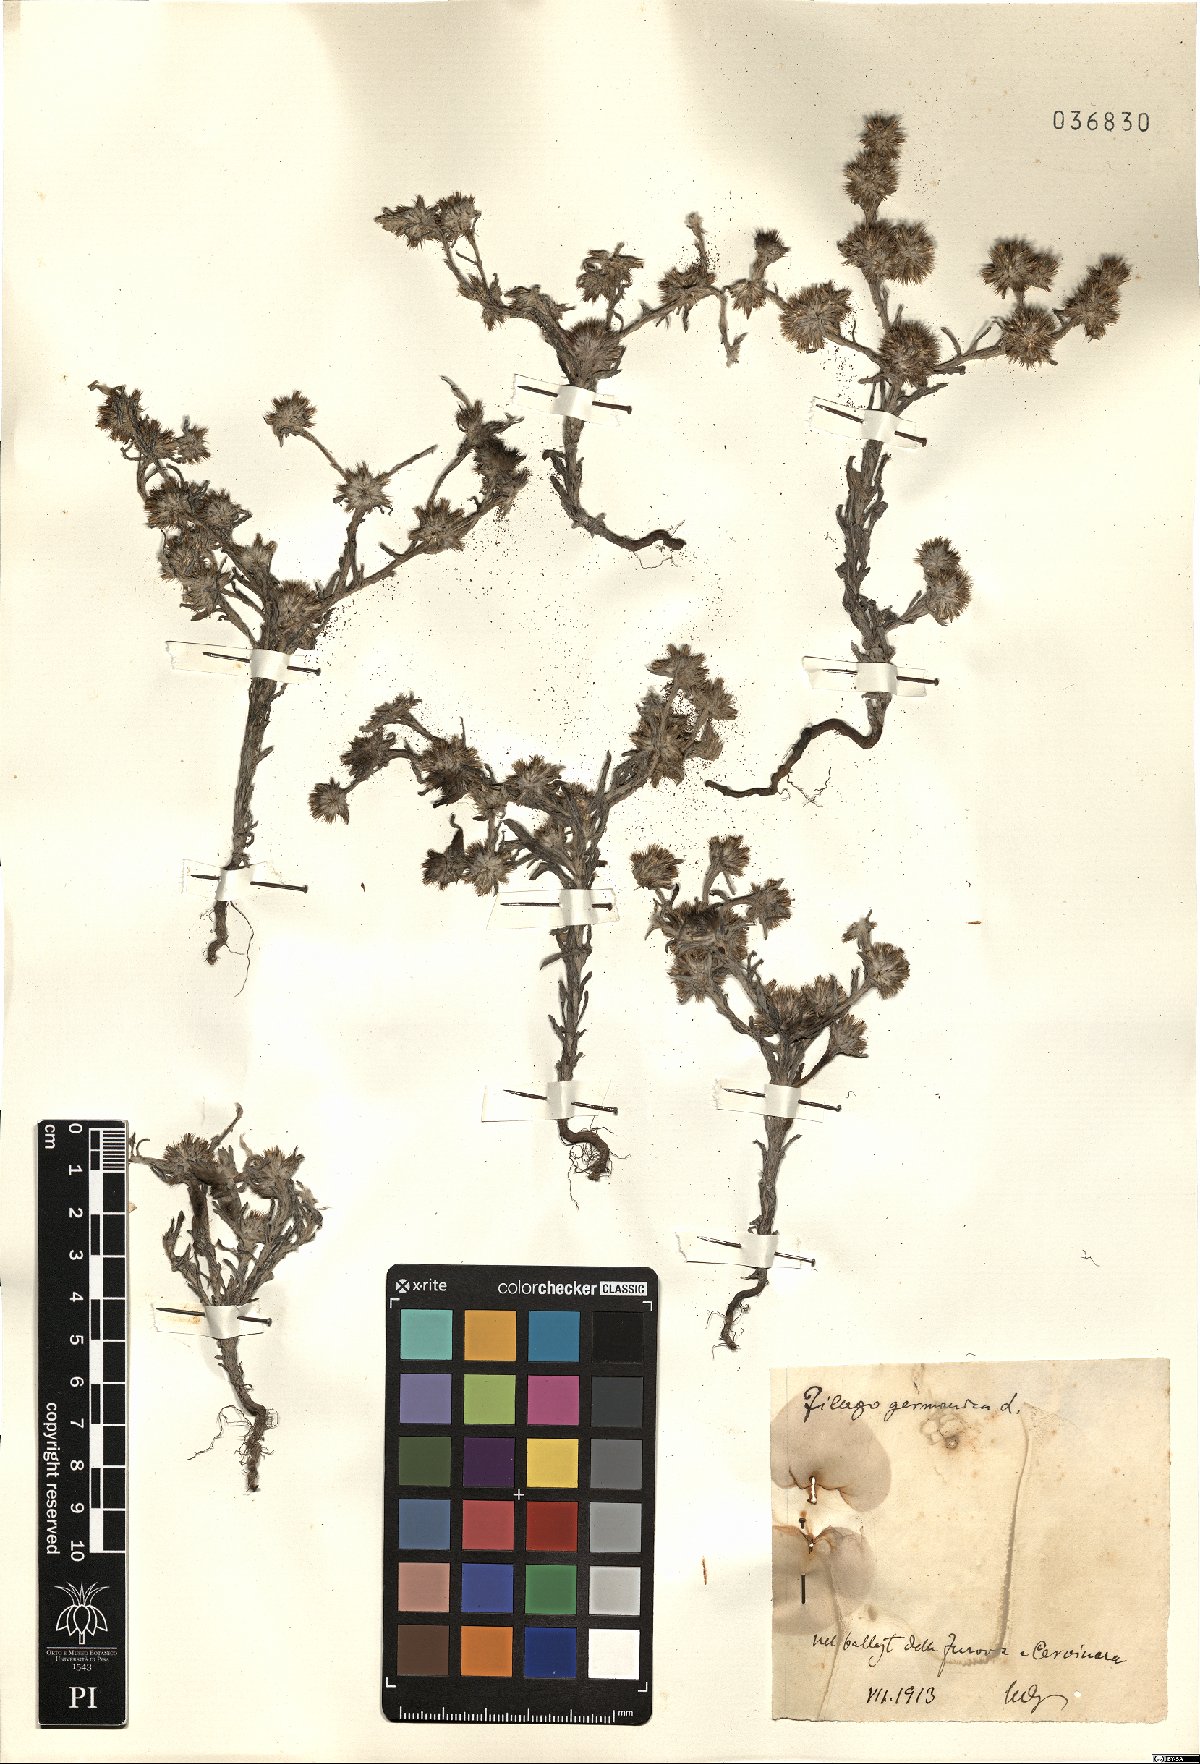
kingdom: Plantae
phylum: Tracheophyta
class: Magnoliopsida
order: Asterales
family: Asteraceae
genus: Filago
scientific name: Filago germanica
